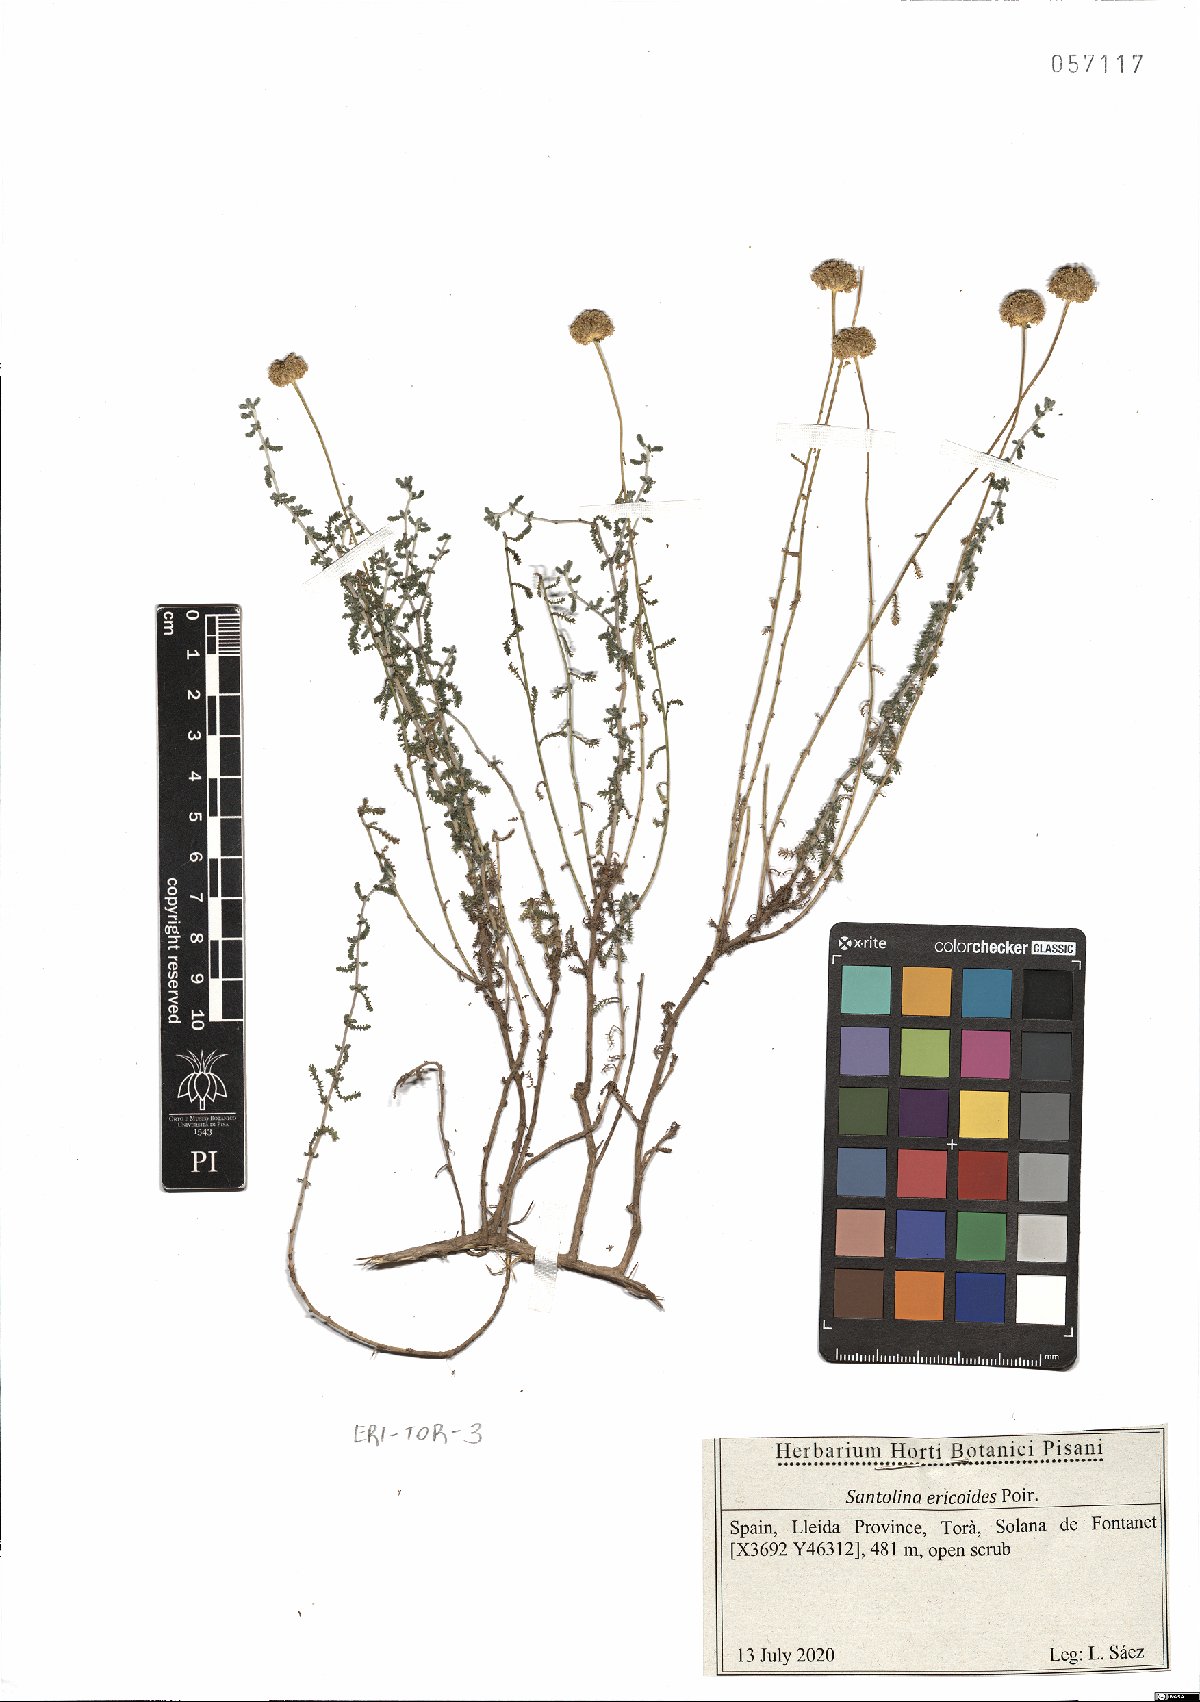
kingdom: Plantae
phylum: Tracheophyta
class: Magnoliopsida
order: Asterales
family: Asteraceae
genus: Santolina
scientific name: Santolina ericoides
